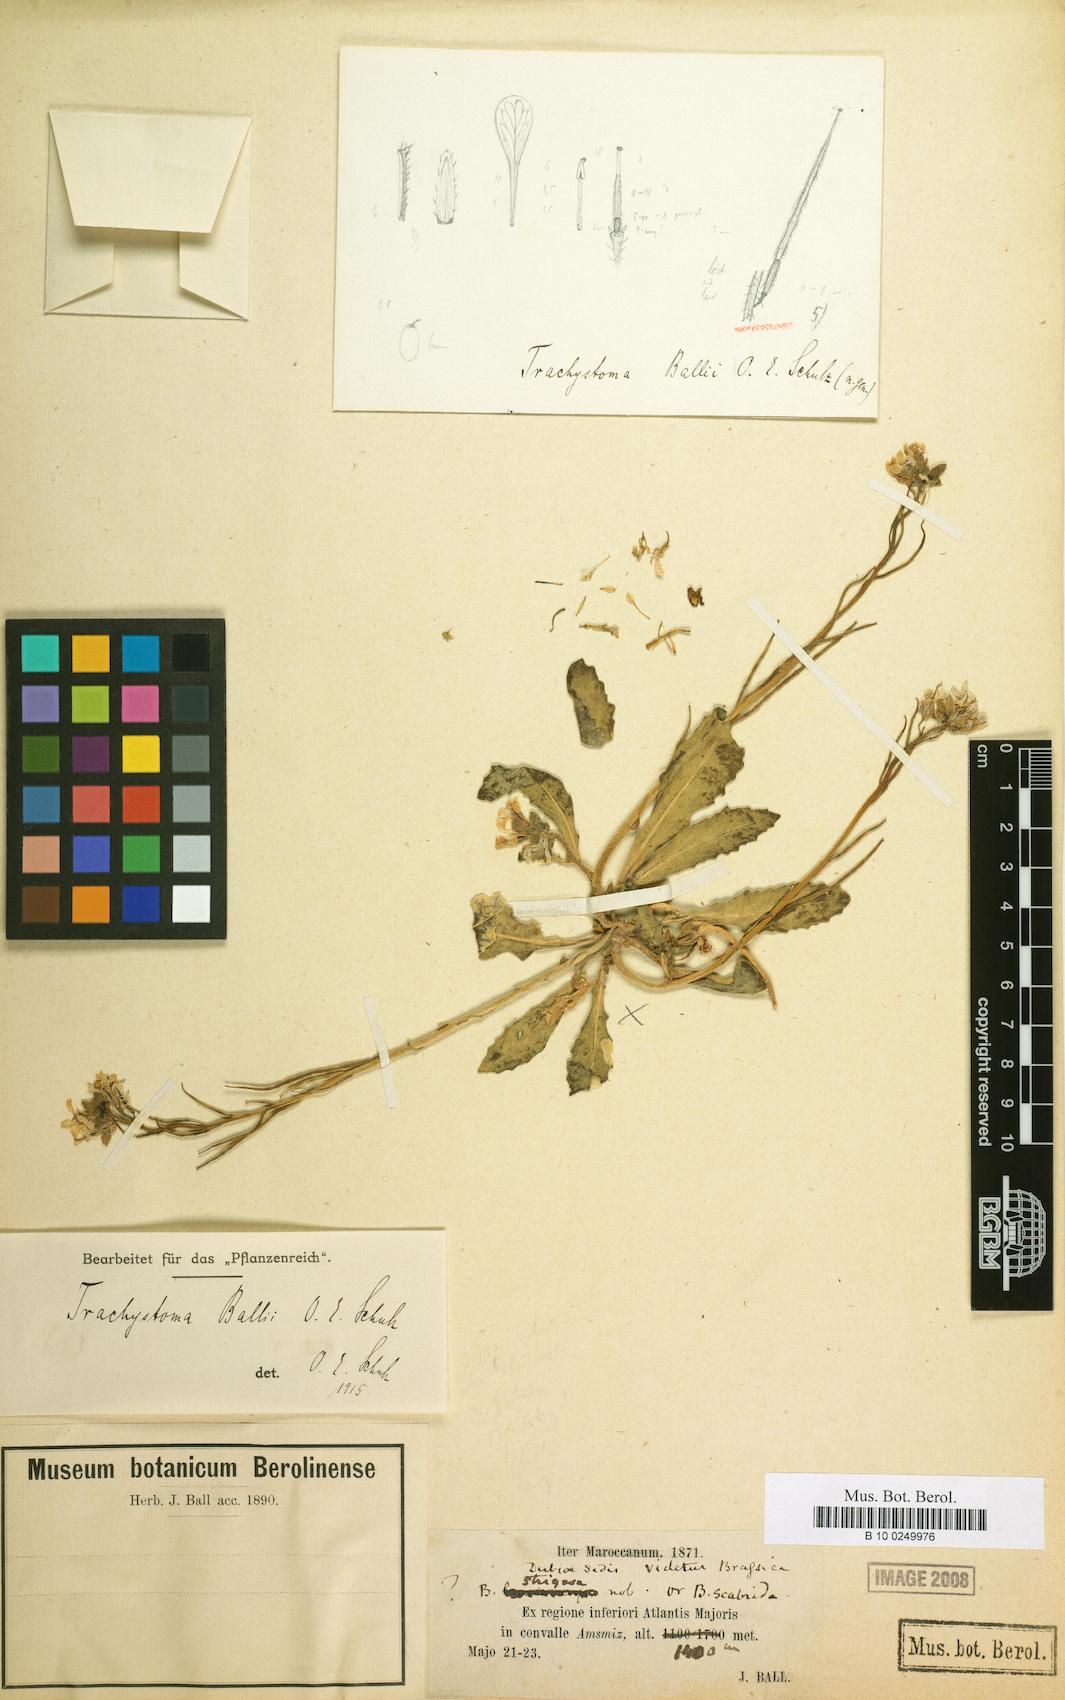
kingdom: Plantae
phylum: Tracheophyta
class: Magnoliopsida
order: Brassicales
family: Brassicaceae
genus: Trachystoma
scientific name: Trachystoma ballii
